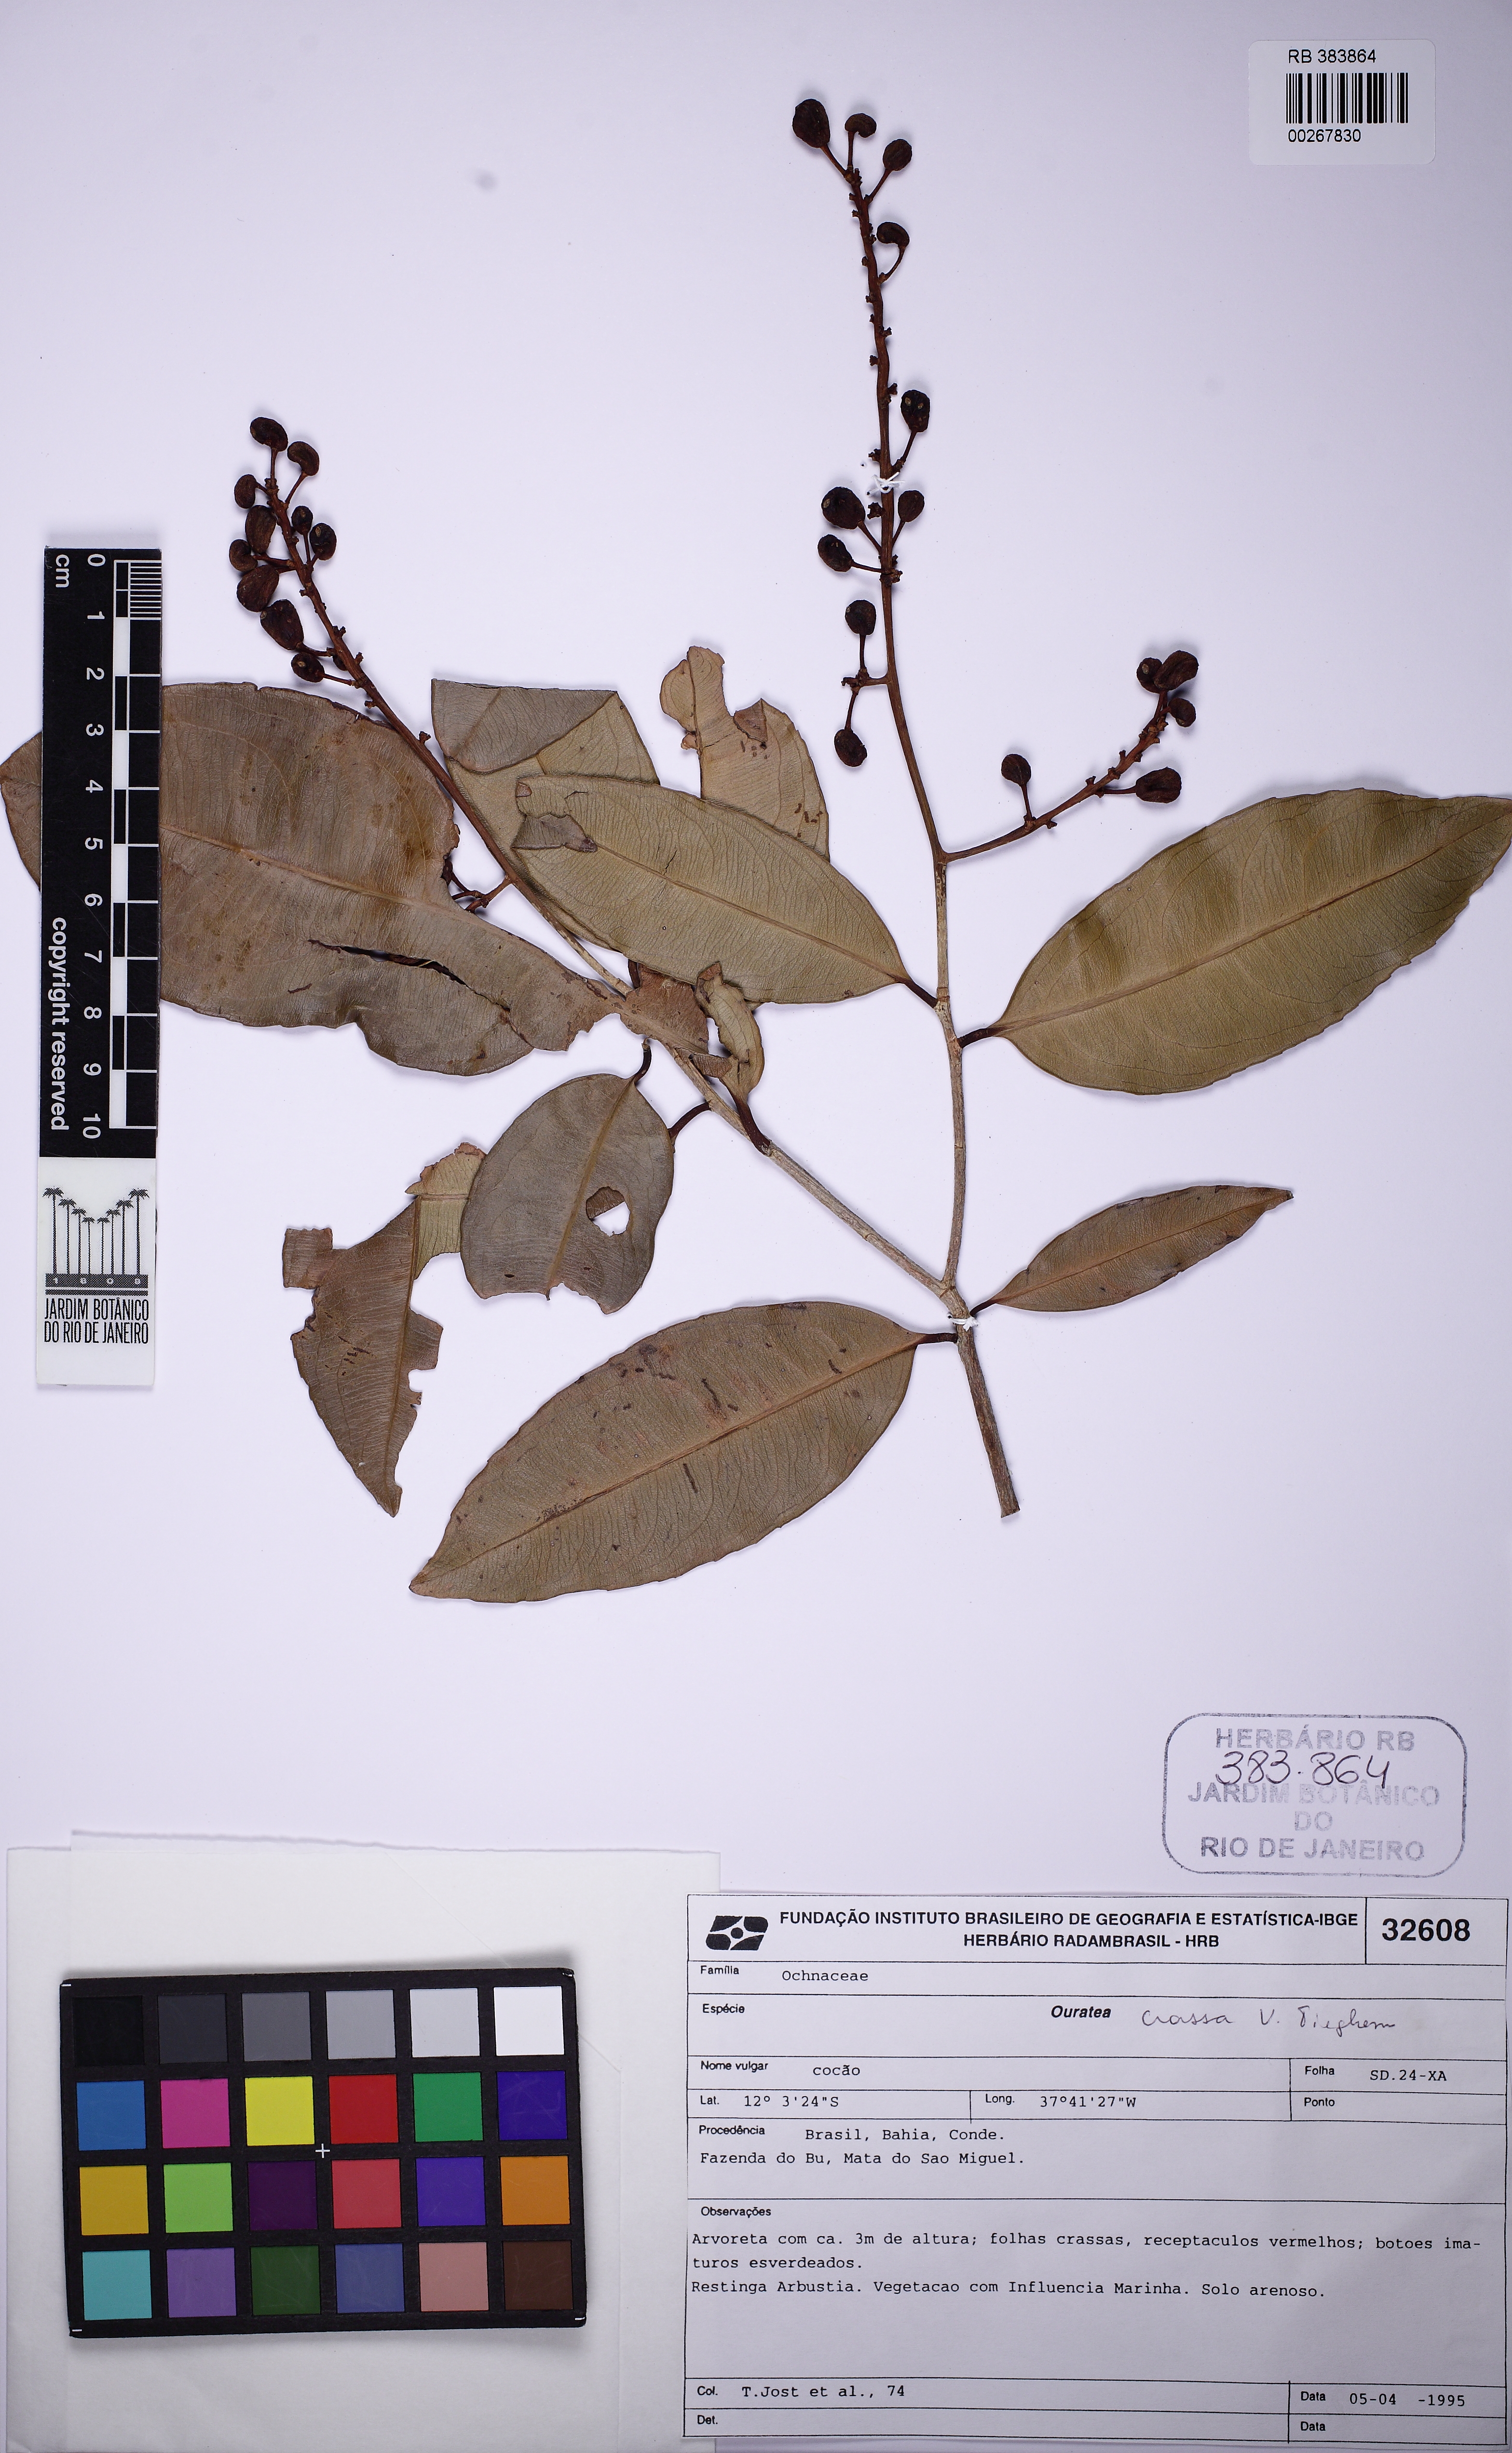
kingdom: Plantae
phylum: Tracheophyta
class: Magnoliopsida
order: Malpighiales
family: Ochnaceae
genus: Ouratea
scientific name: Ouratea crassa
